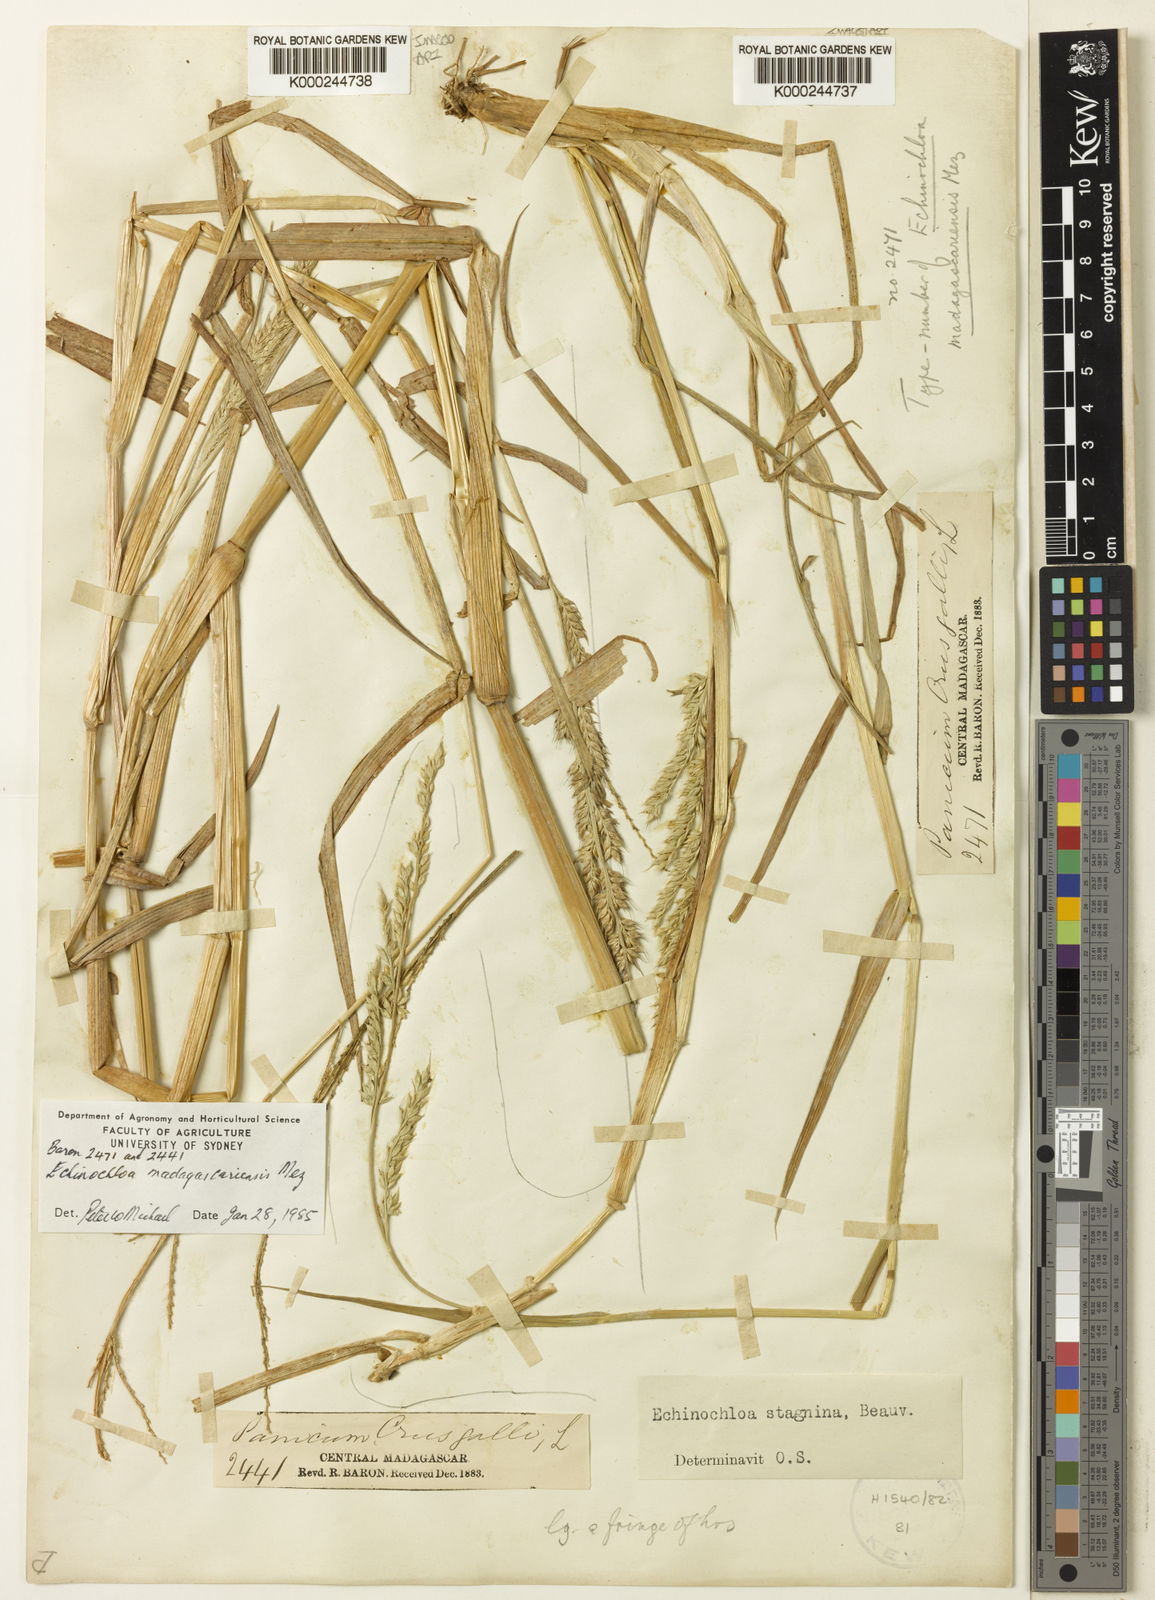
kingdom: Plantae
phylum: Tracheophyta
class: Liliopsida
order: Poales
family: Poaceae
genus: Echinochloa
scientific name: Echinochloa crus-galli
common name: Cockspur
